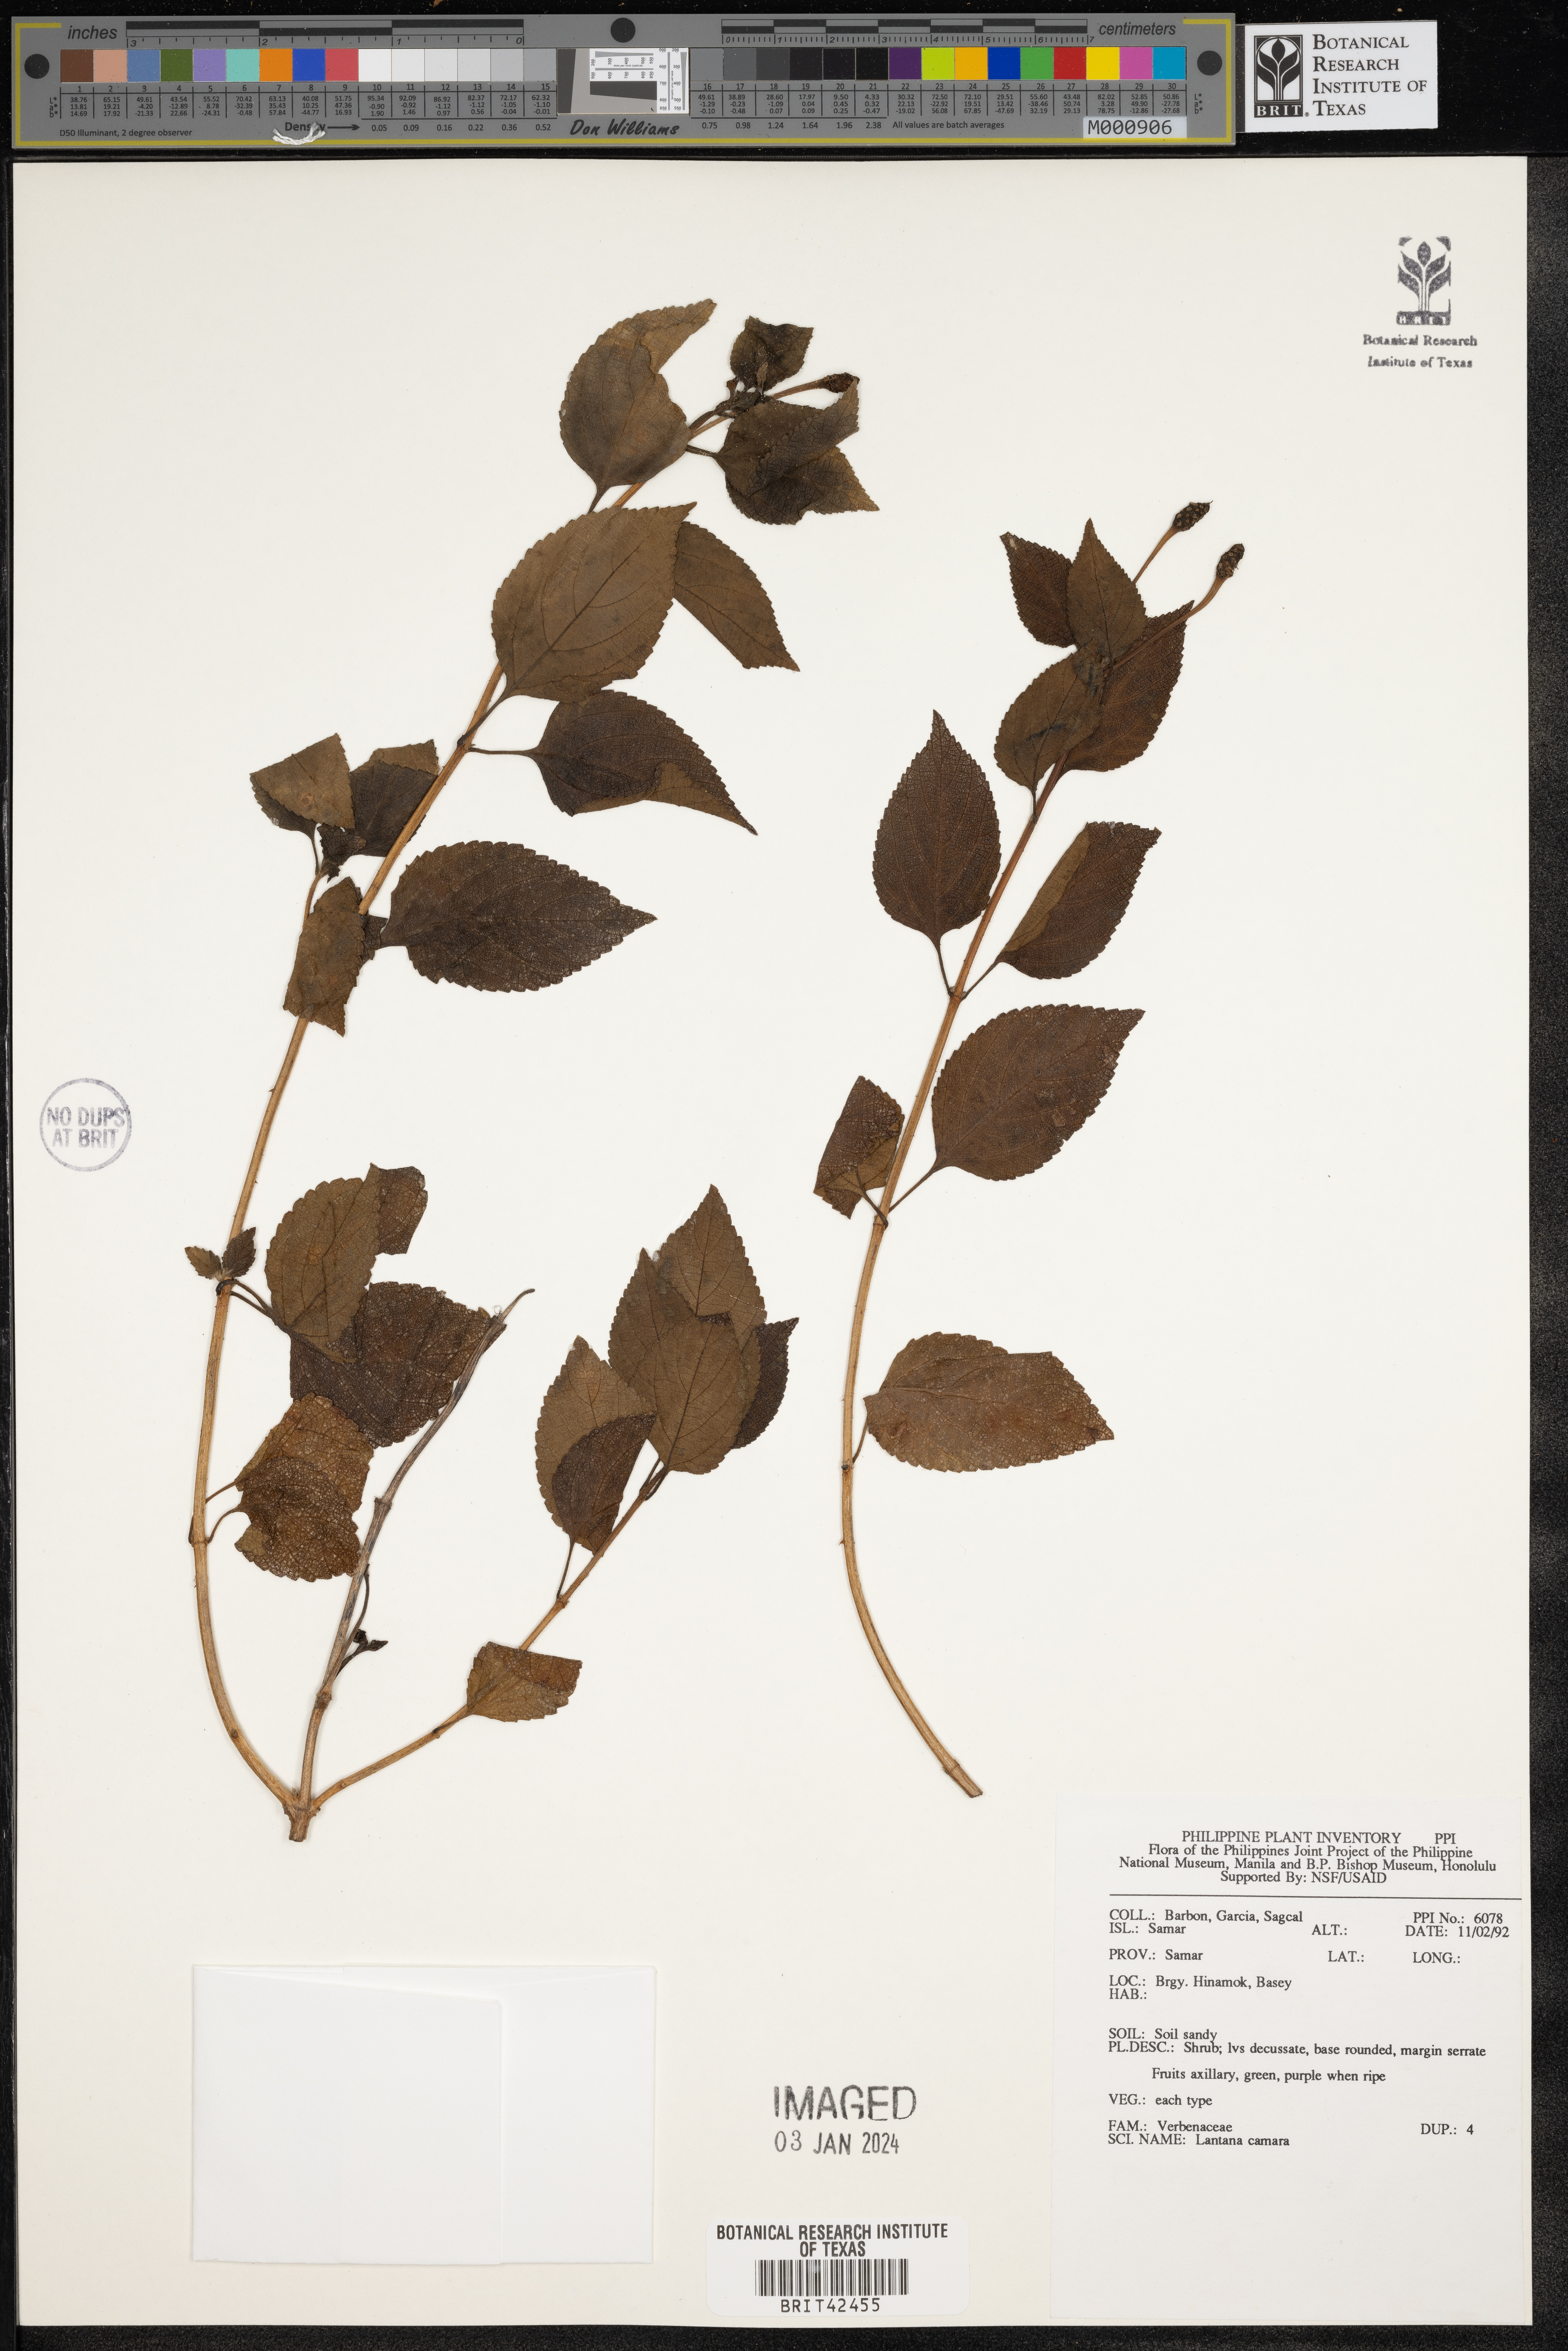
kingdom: Plantae
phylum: Tracheophyta
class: Magnoliopsida
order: Lamiales
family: Verbenaceae
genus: Lantana
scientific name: Lantana camara
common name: Lantana
